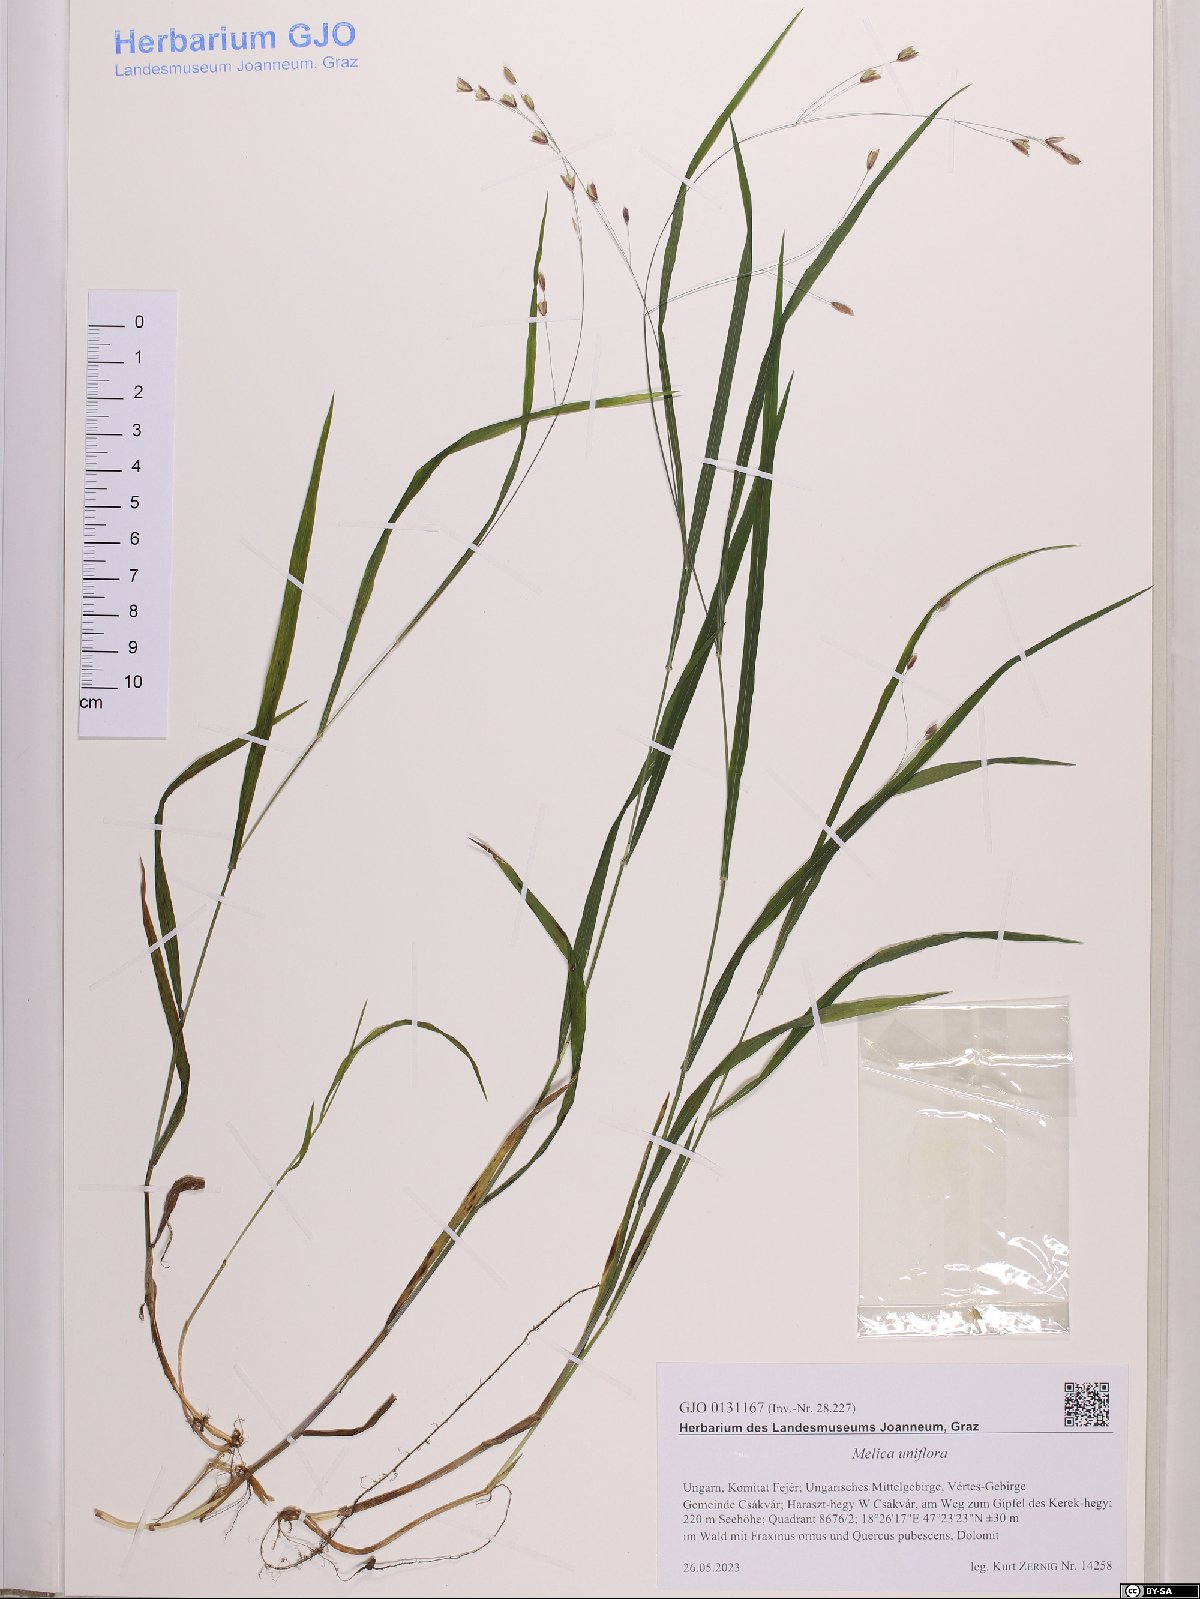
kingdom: Plantae
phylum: Tracheophyta
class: Liliopsida
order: Poales
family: Poaceae
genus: Melica
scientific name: Melica uniflora
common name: Wood melick
